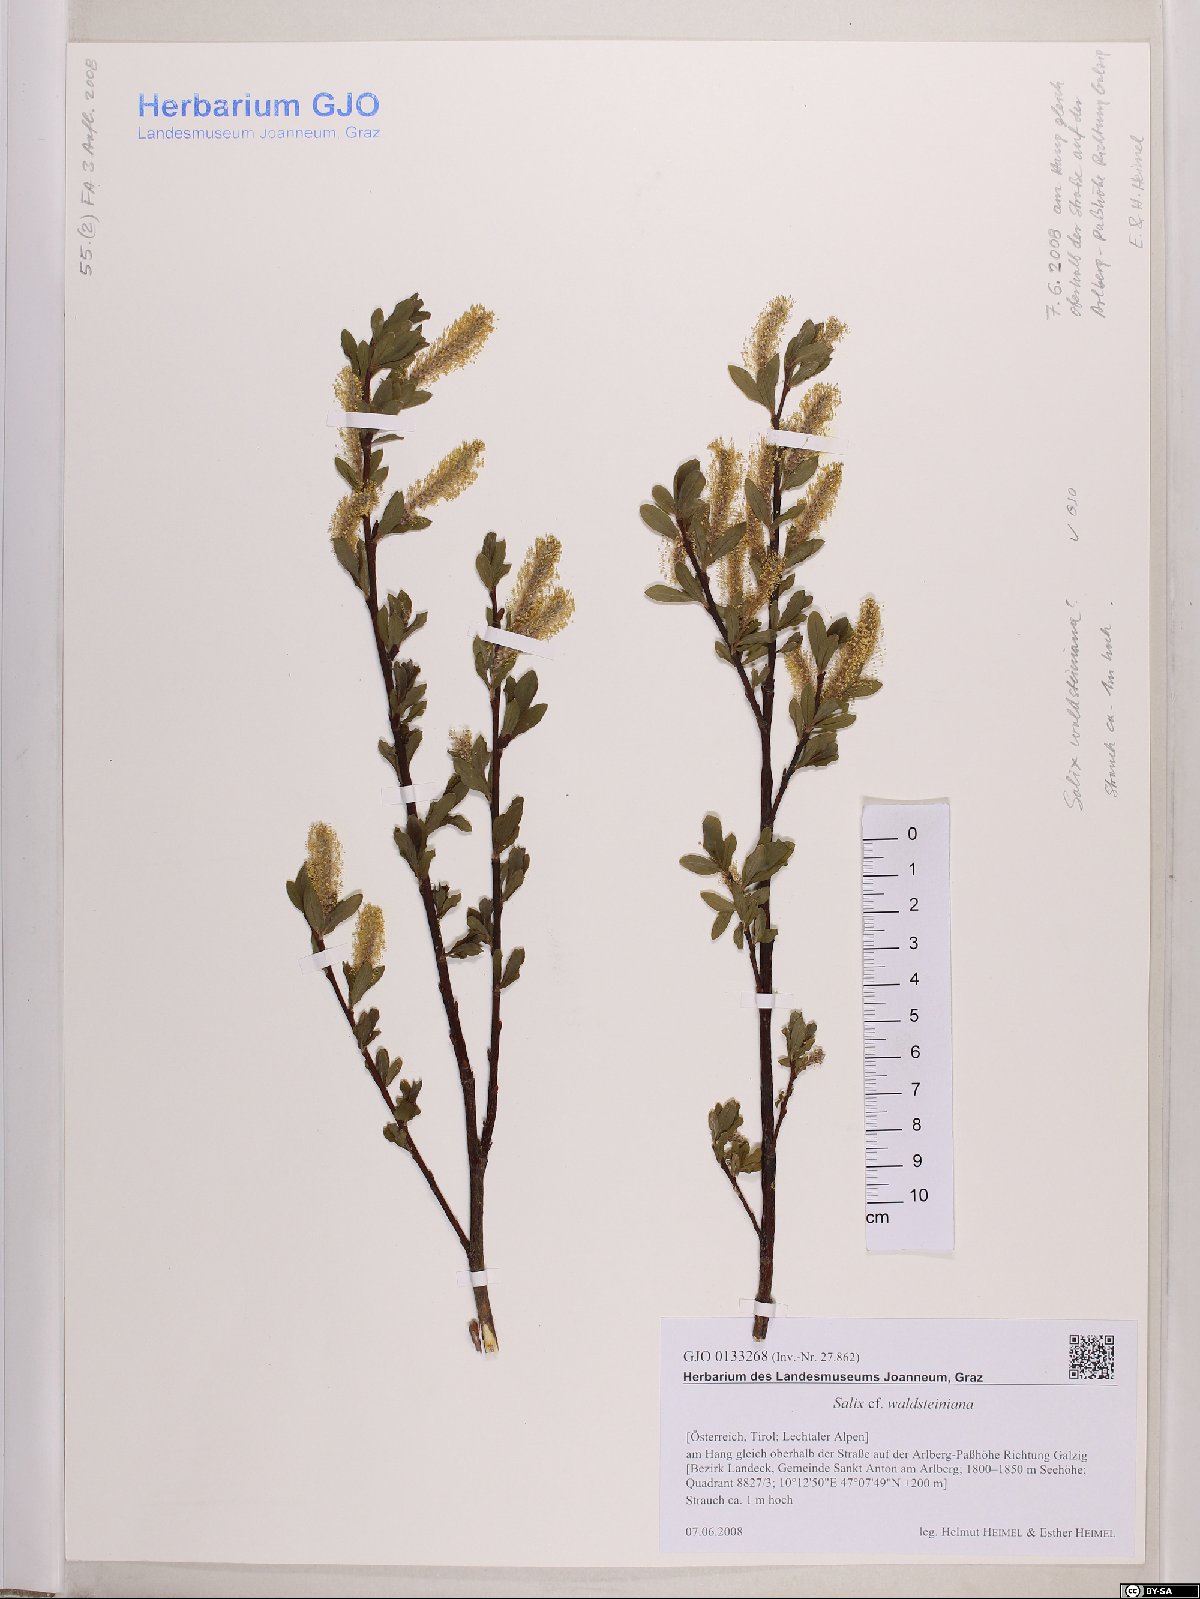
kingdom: Plantae
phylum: Tracheophyta
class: Magnoliopsida
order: Malpighiales
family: Salicaceae
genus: Salix
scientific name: Salix waldsteiniana
